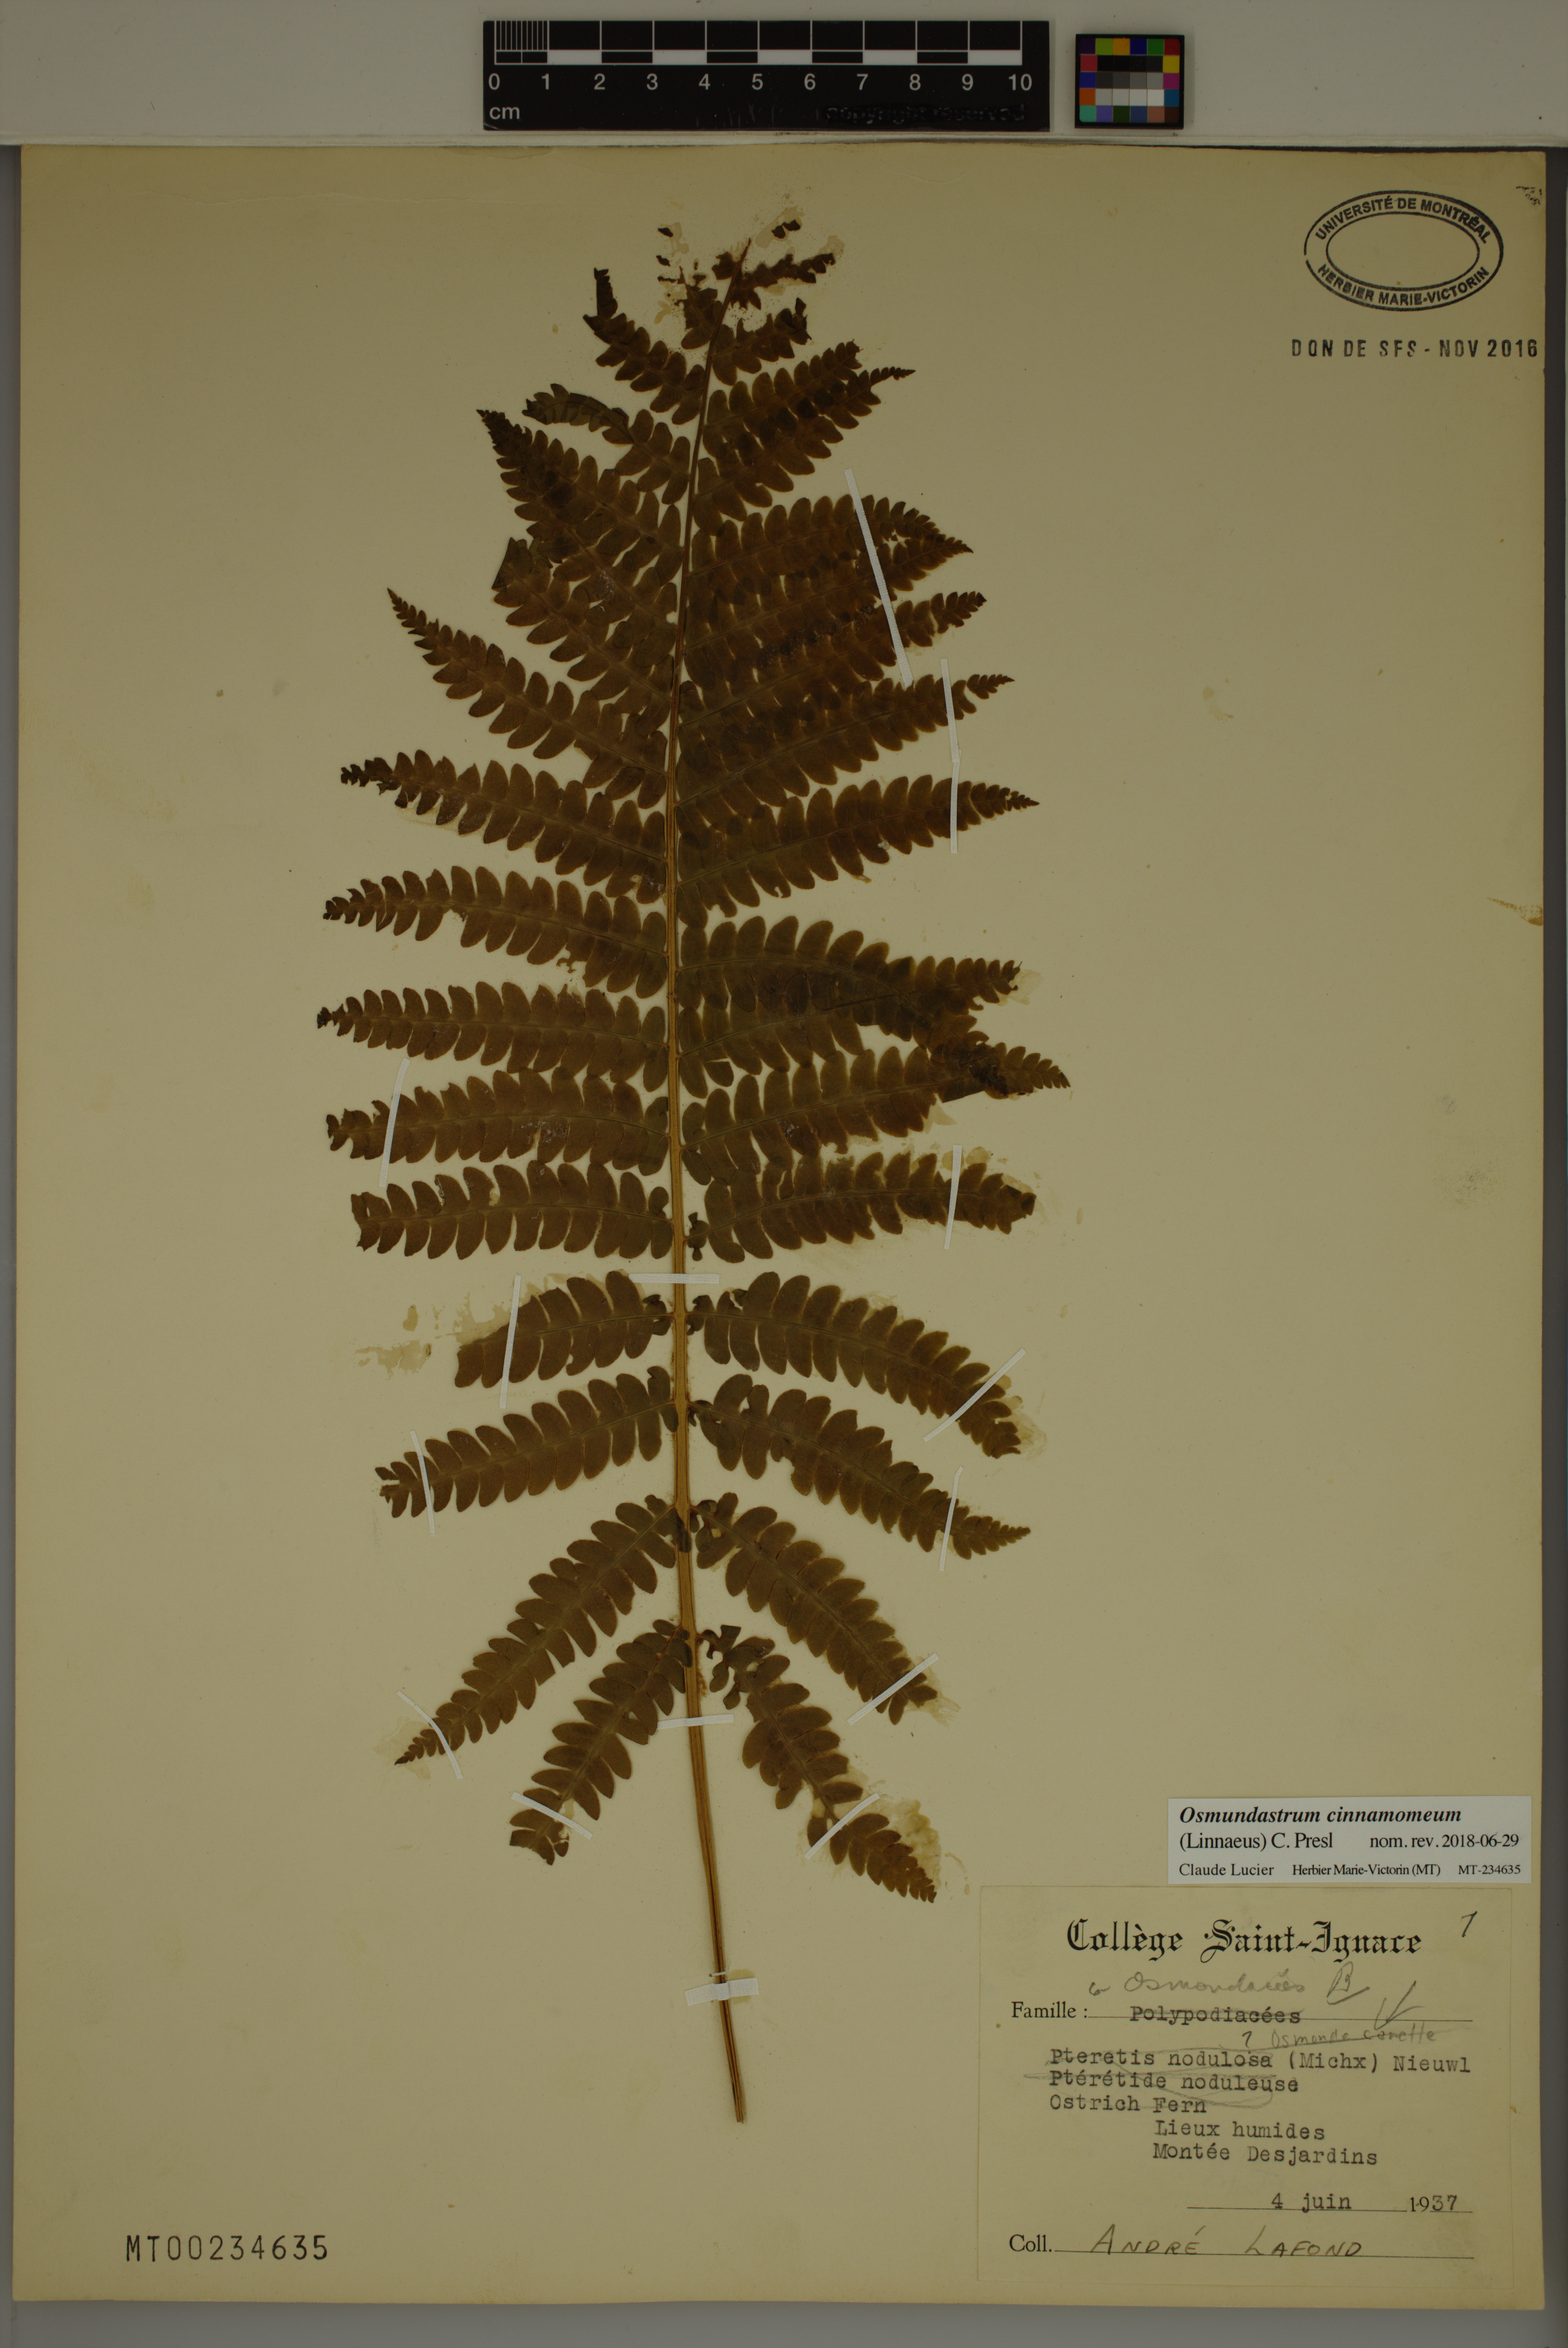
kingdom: Plantae
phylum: Tracheophyta
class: Polypodiopsida
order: Osmundales
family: Osmundaceae
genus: Osmundastrum
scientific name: Osmundastrum cinnamomeum
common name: Cinnamon fern
